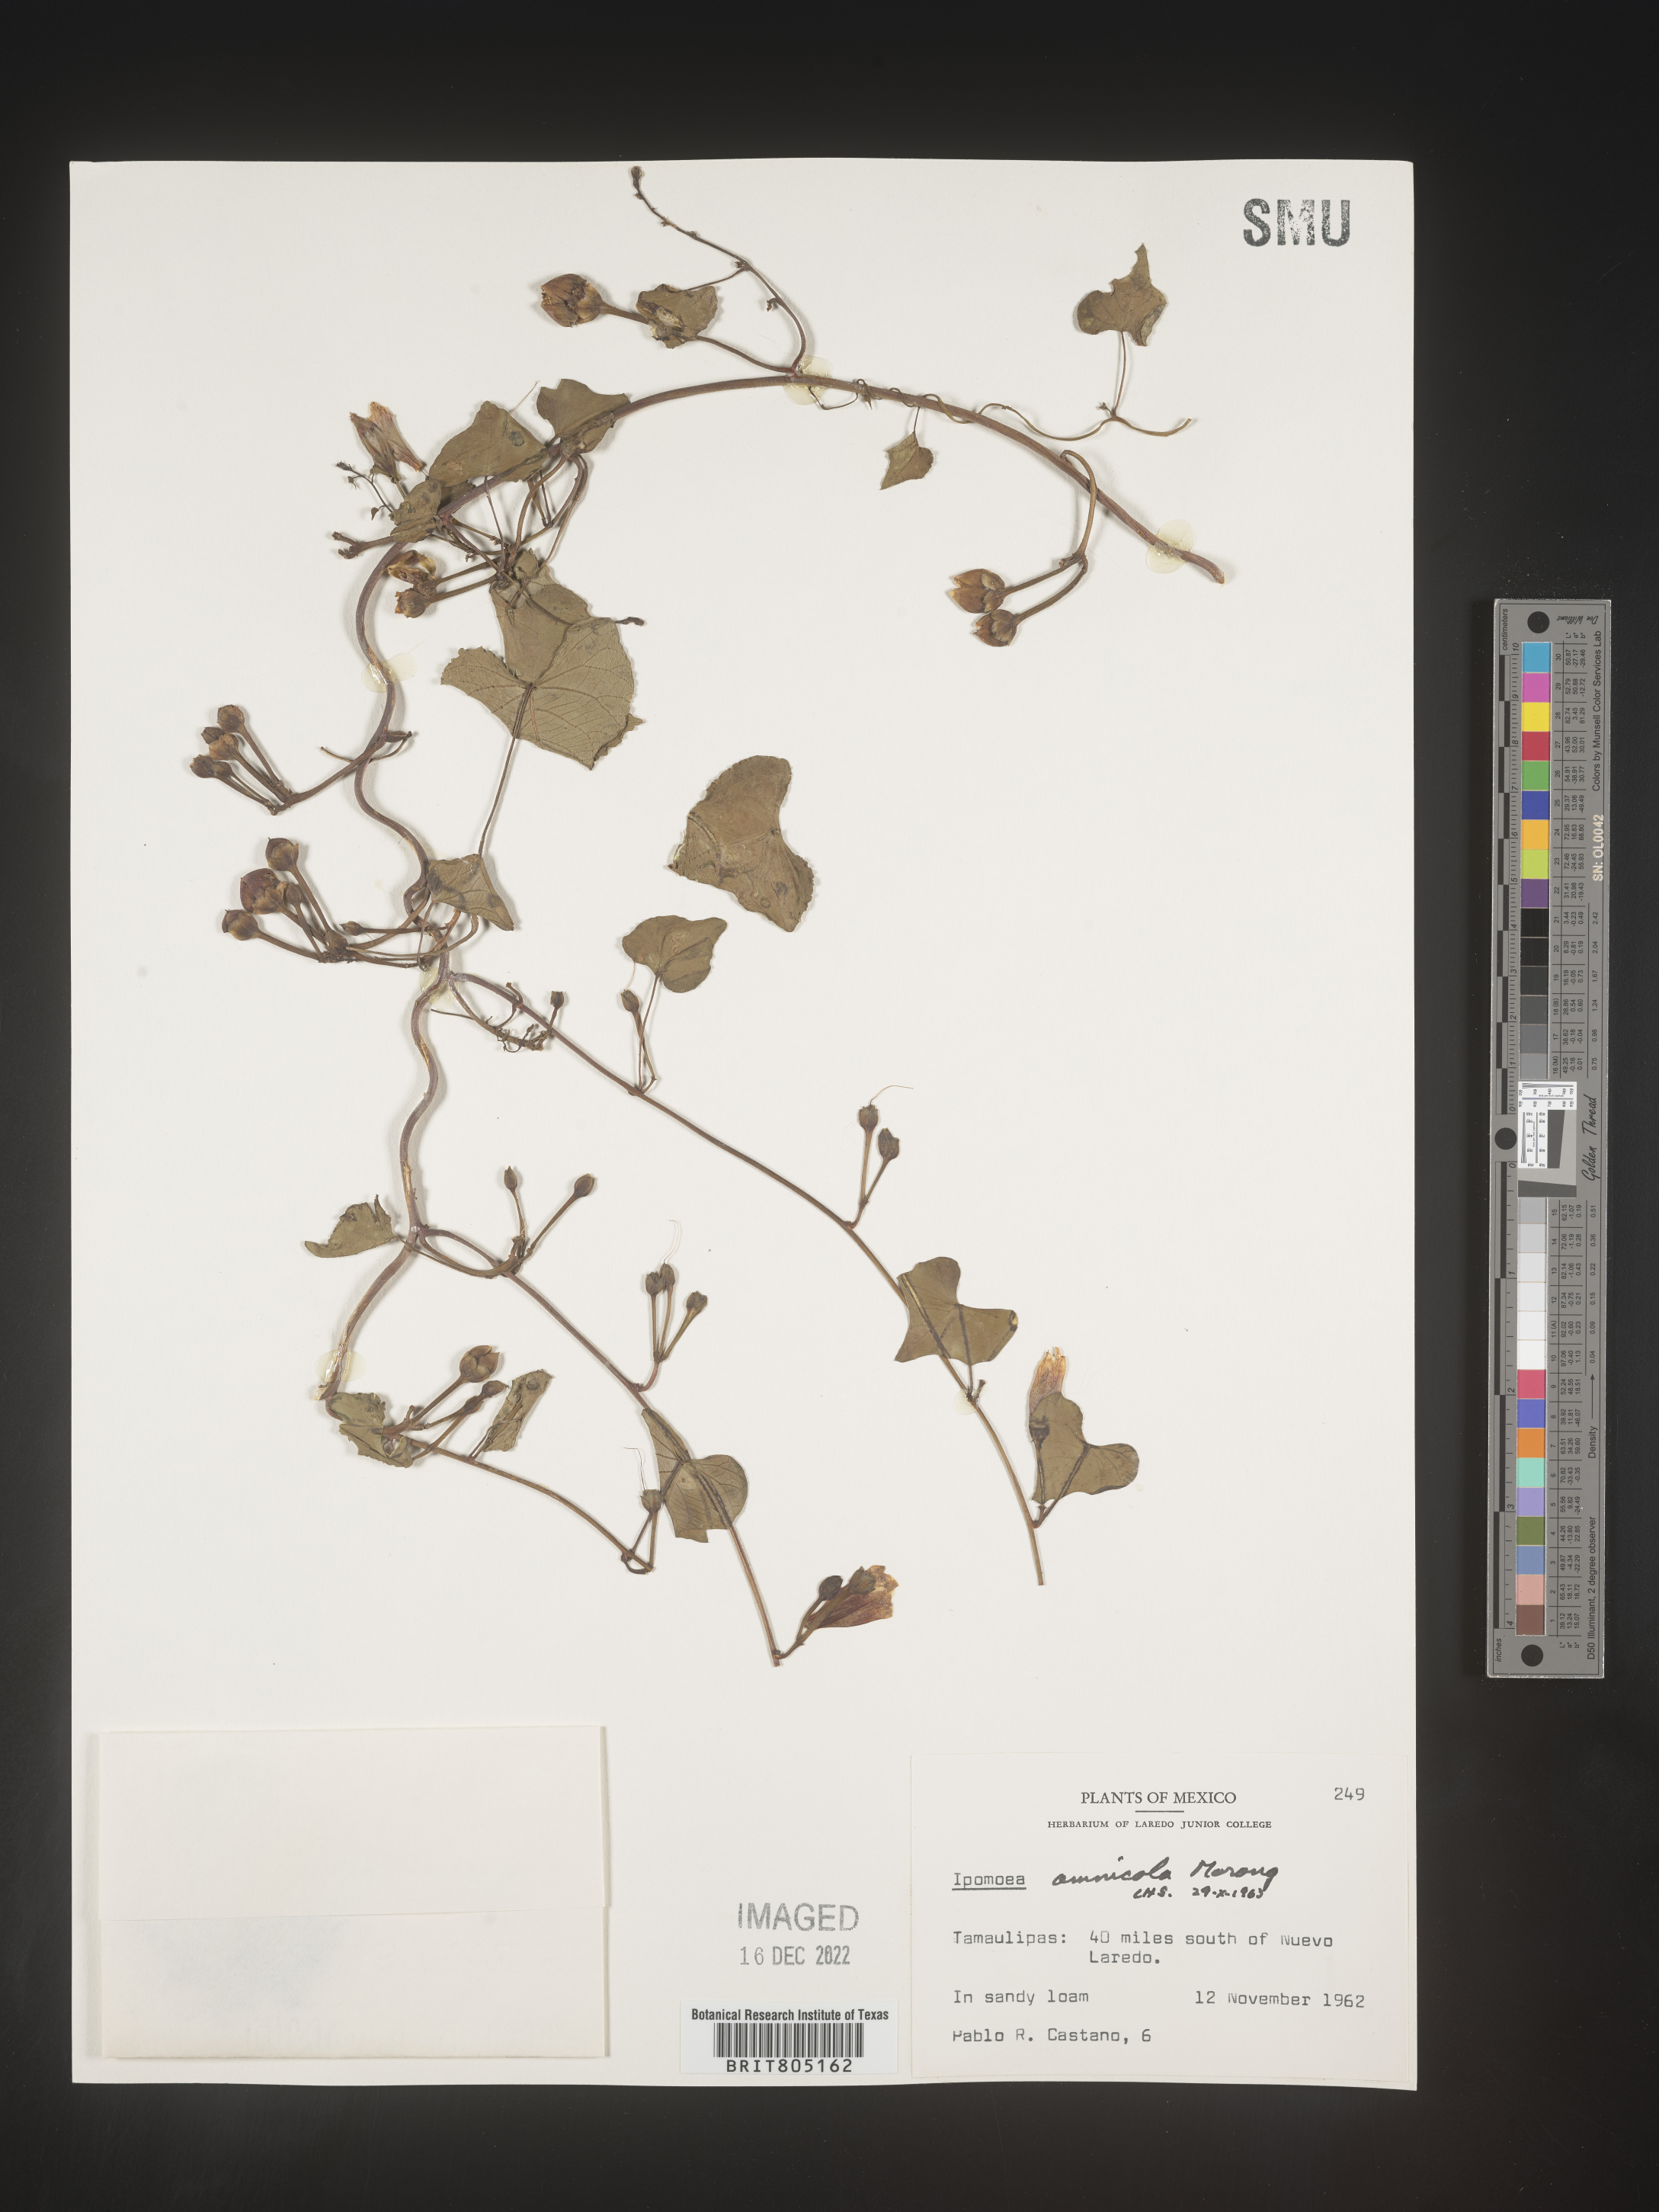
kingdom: Plantae
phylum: Tracheophyta
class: Magnoliopsida
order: Solanales
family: Convolvulaceae
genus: Ipomoea
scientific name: Ipomoea
